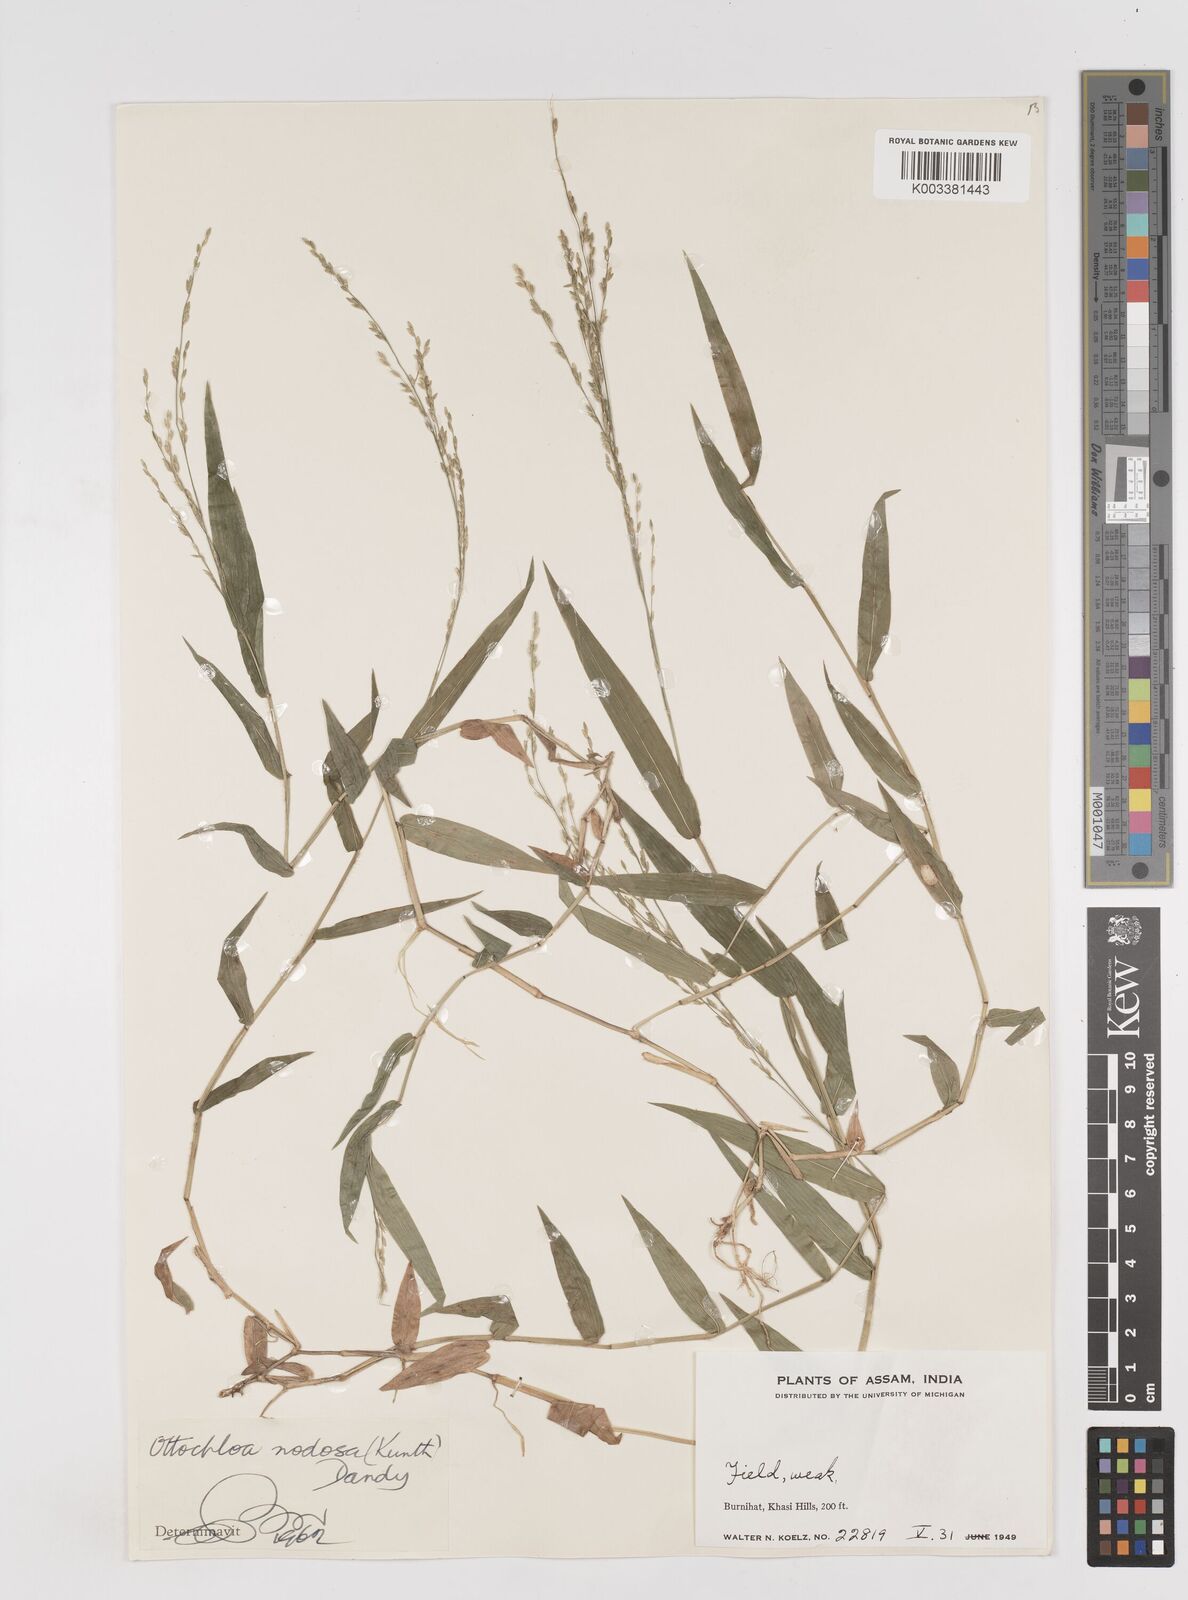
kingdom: Plantae
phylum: Tracheophyta
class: Liliopsida
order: Poales
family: Poaceae
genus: Ottochloa
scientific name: Ottochloa nodosa
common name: Slender-panic grass
